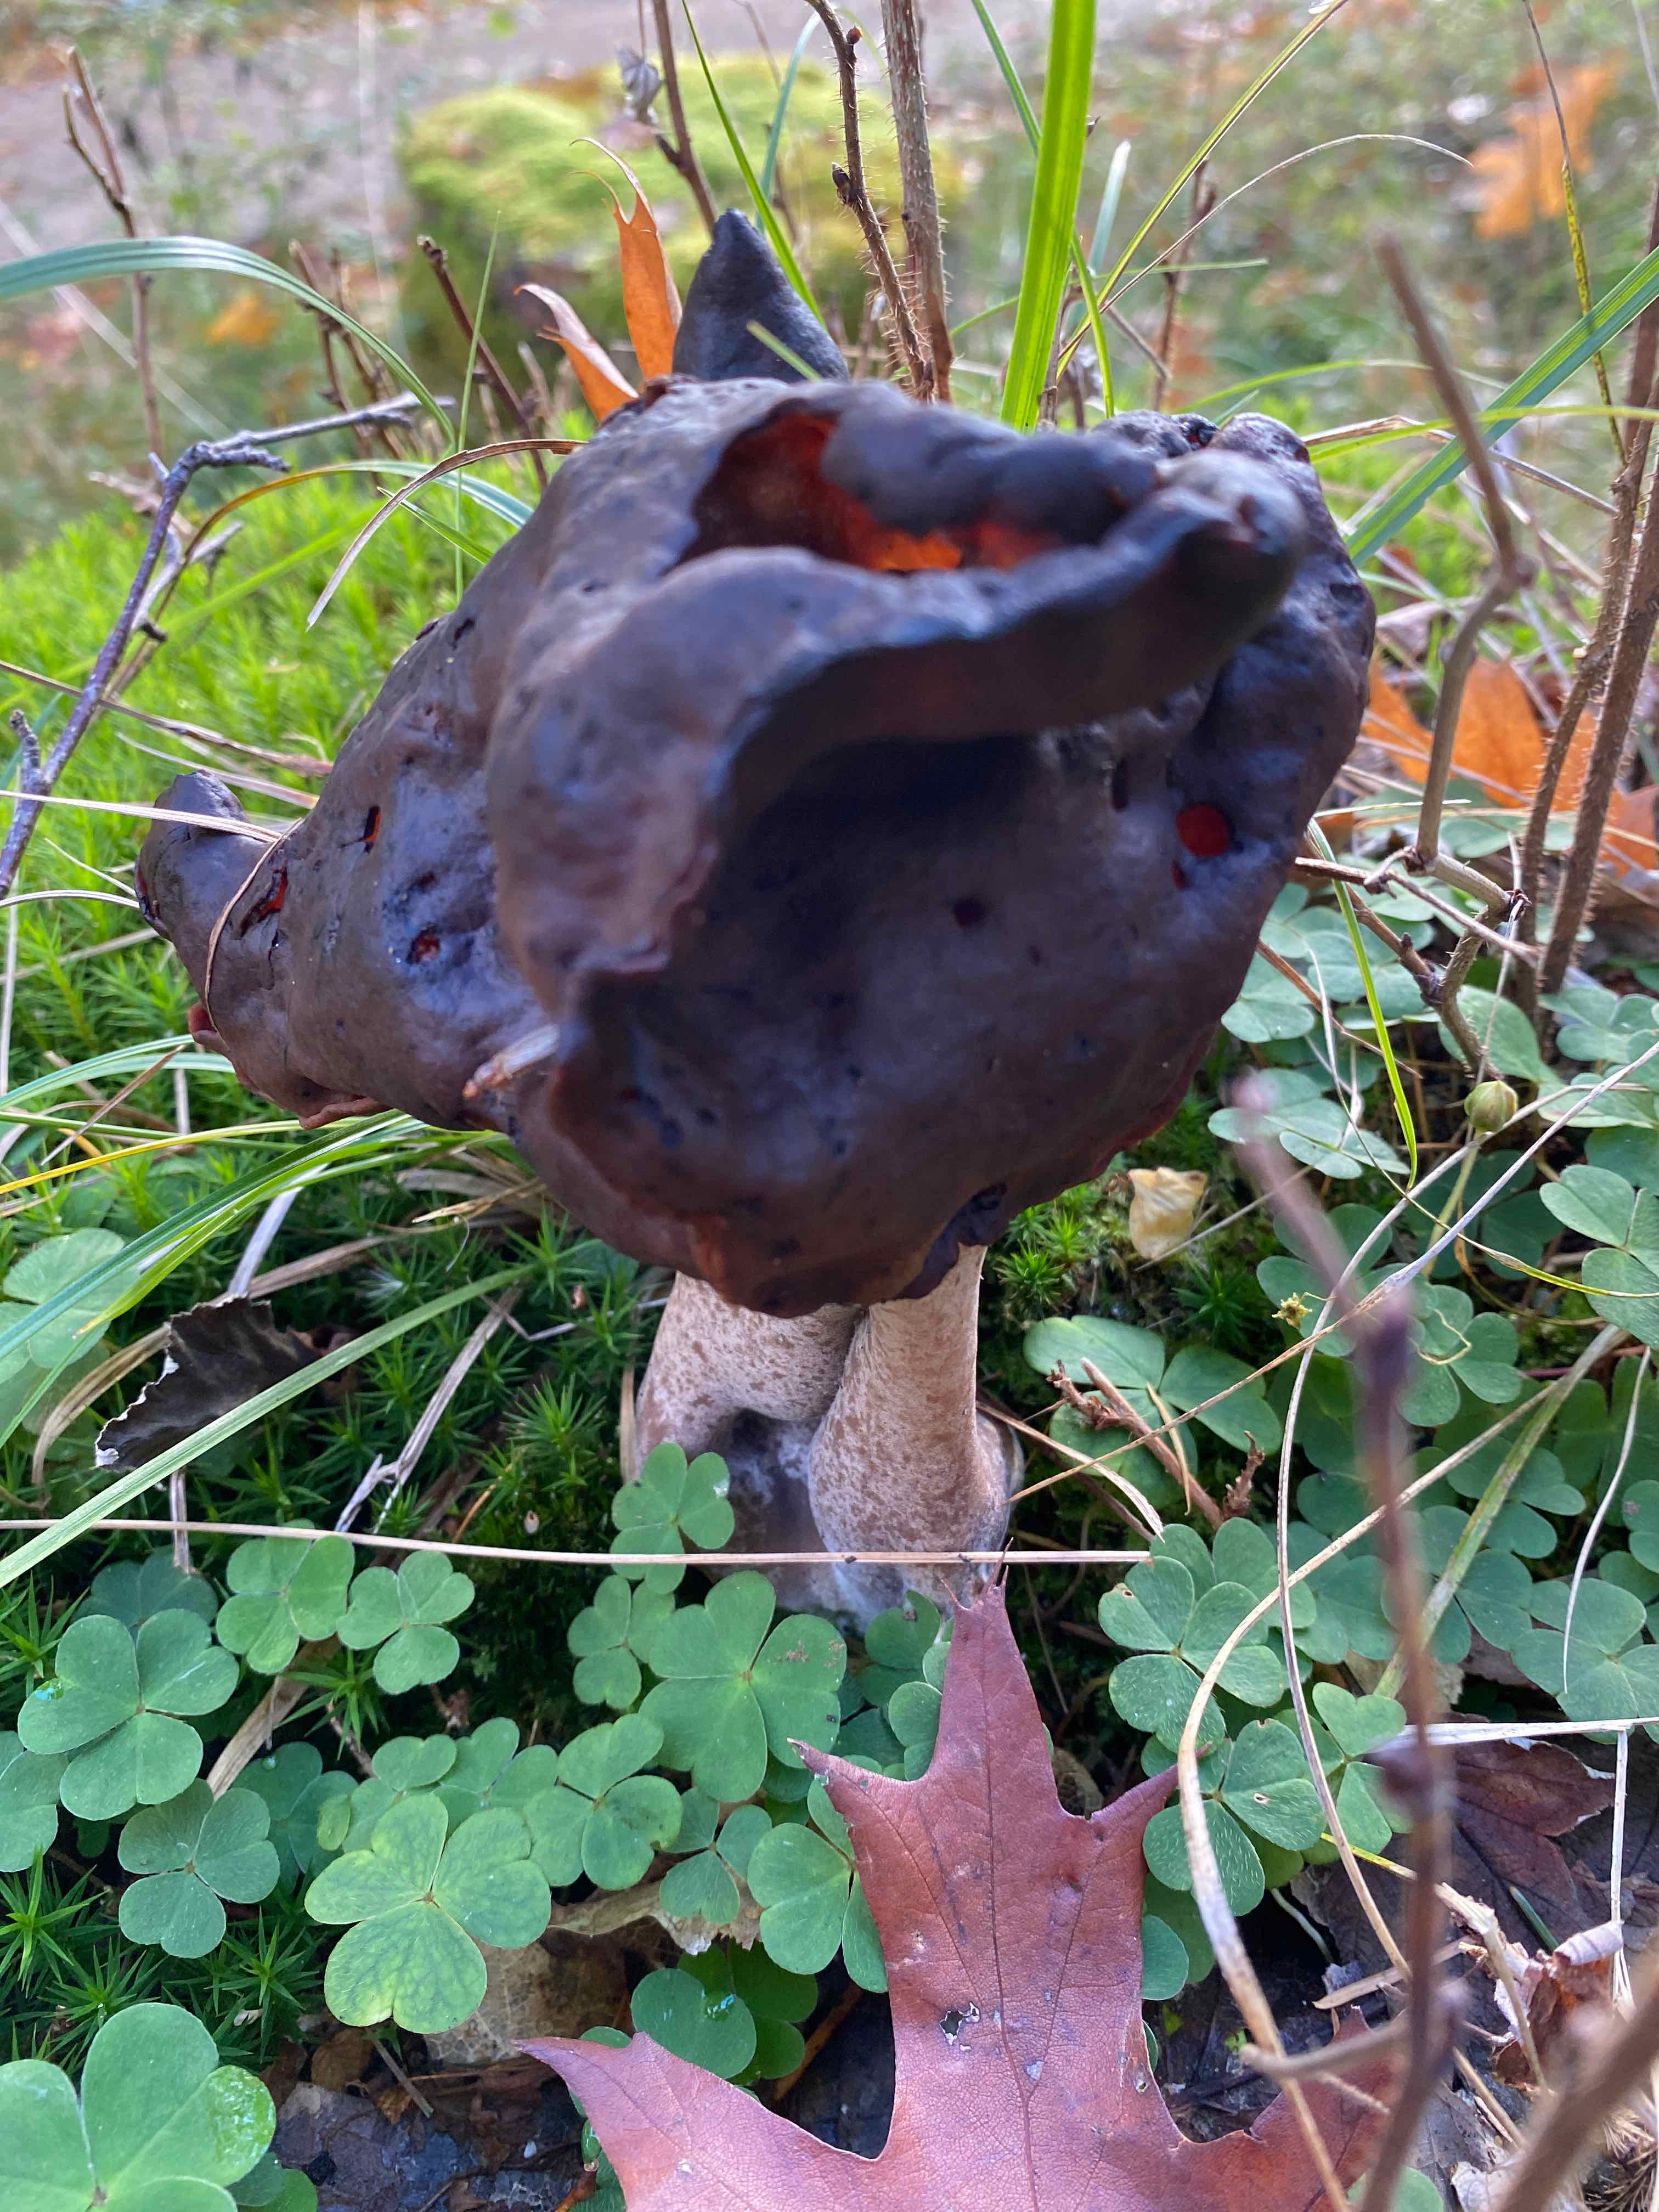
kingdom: Fungi
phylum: Ascomycota
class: Pezizomycetes
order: Pezizales
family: Discinaceae
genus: Gyromitra
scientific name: Gyromitra infula
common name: bispehue-stenmorkel
